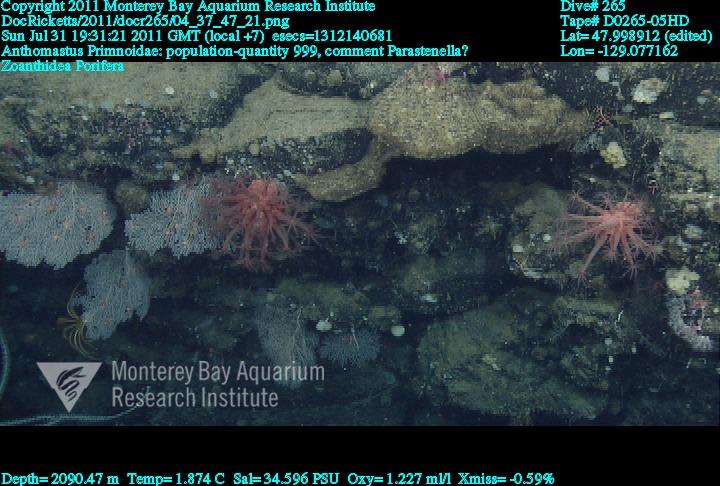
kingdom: Animalia
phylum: Porifera
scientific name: Porifera
